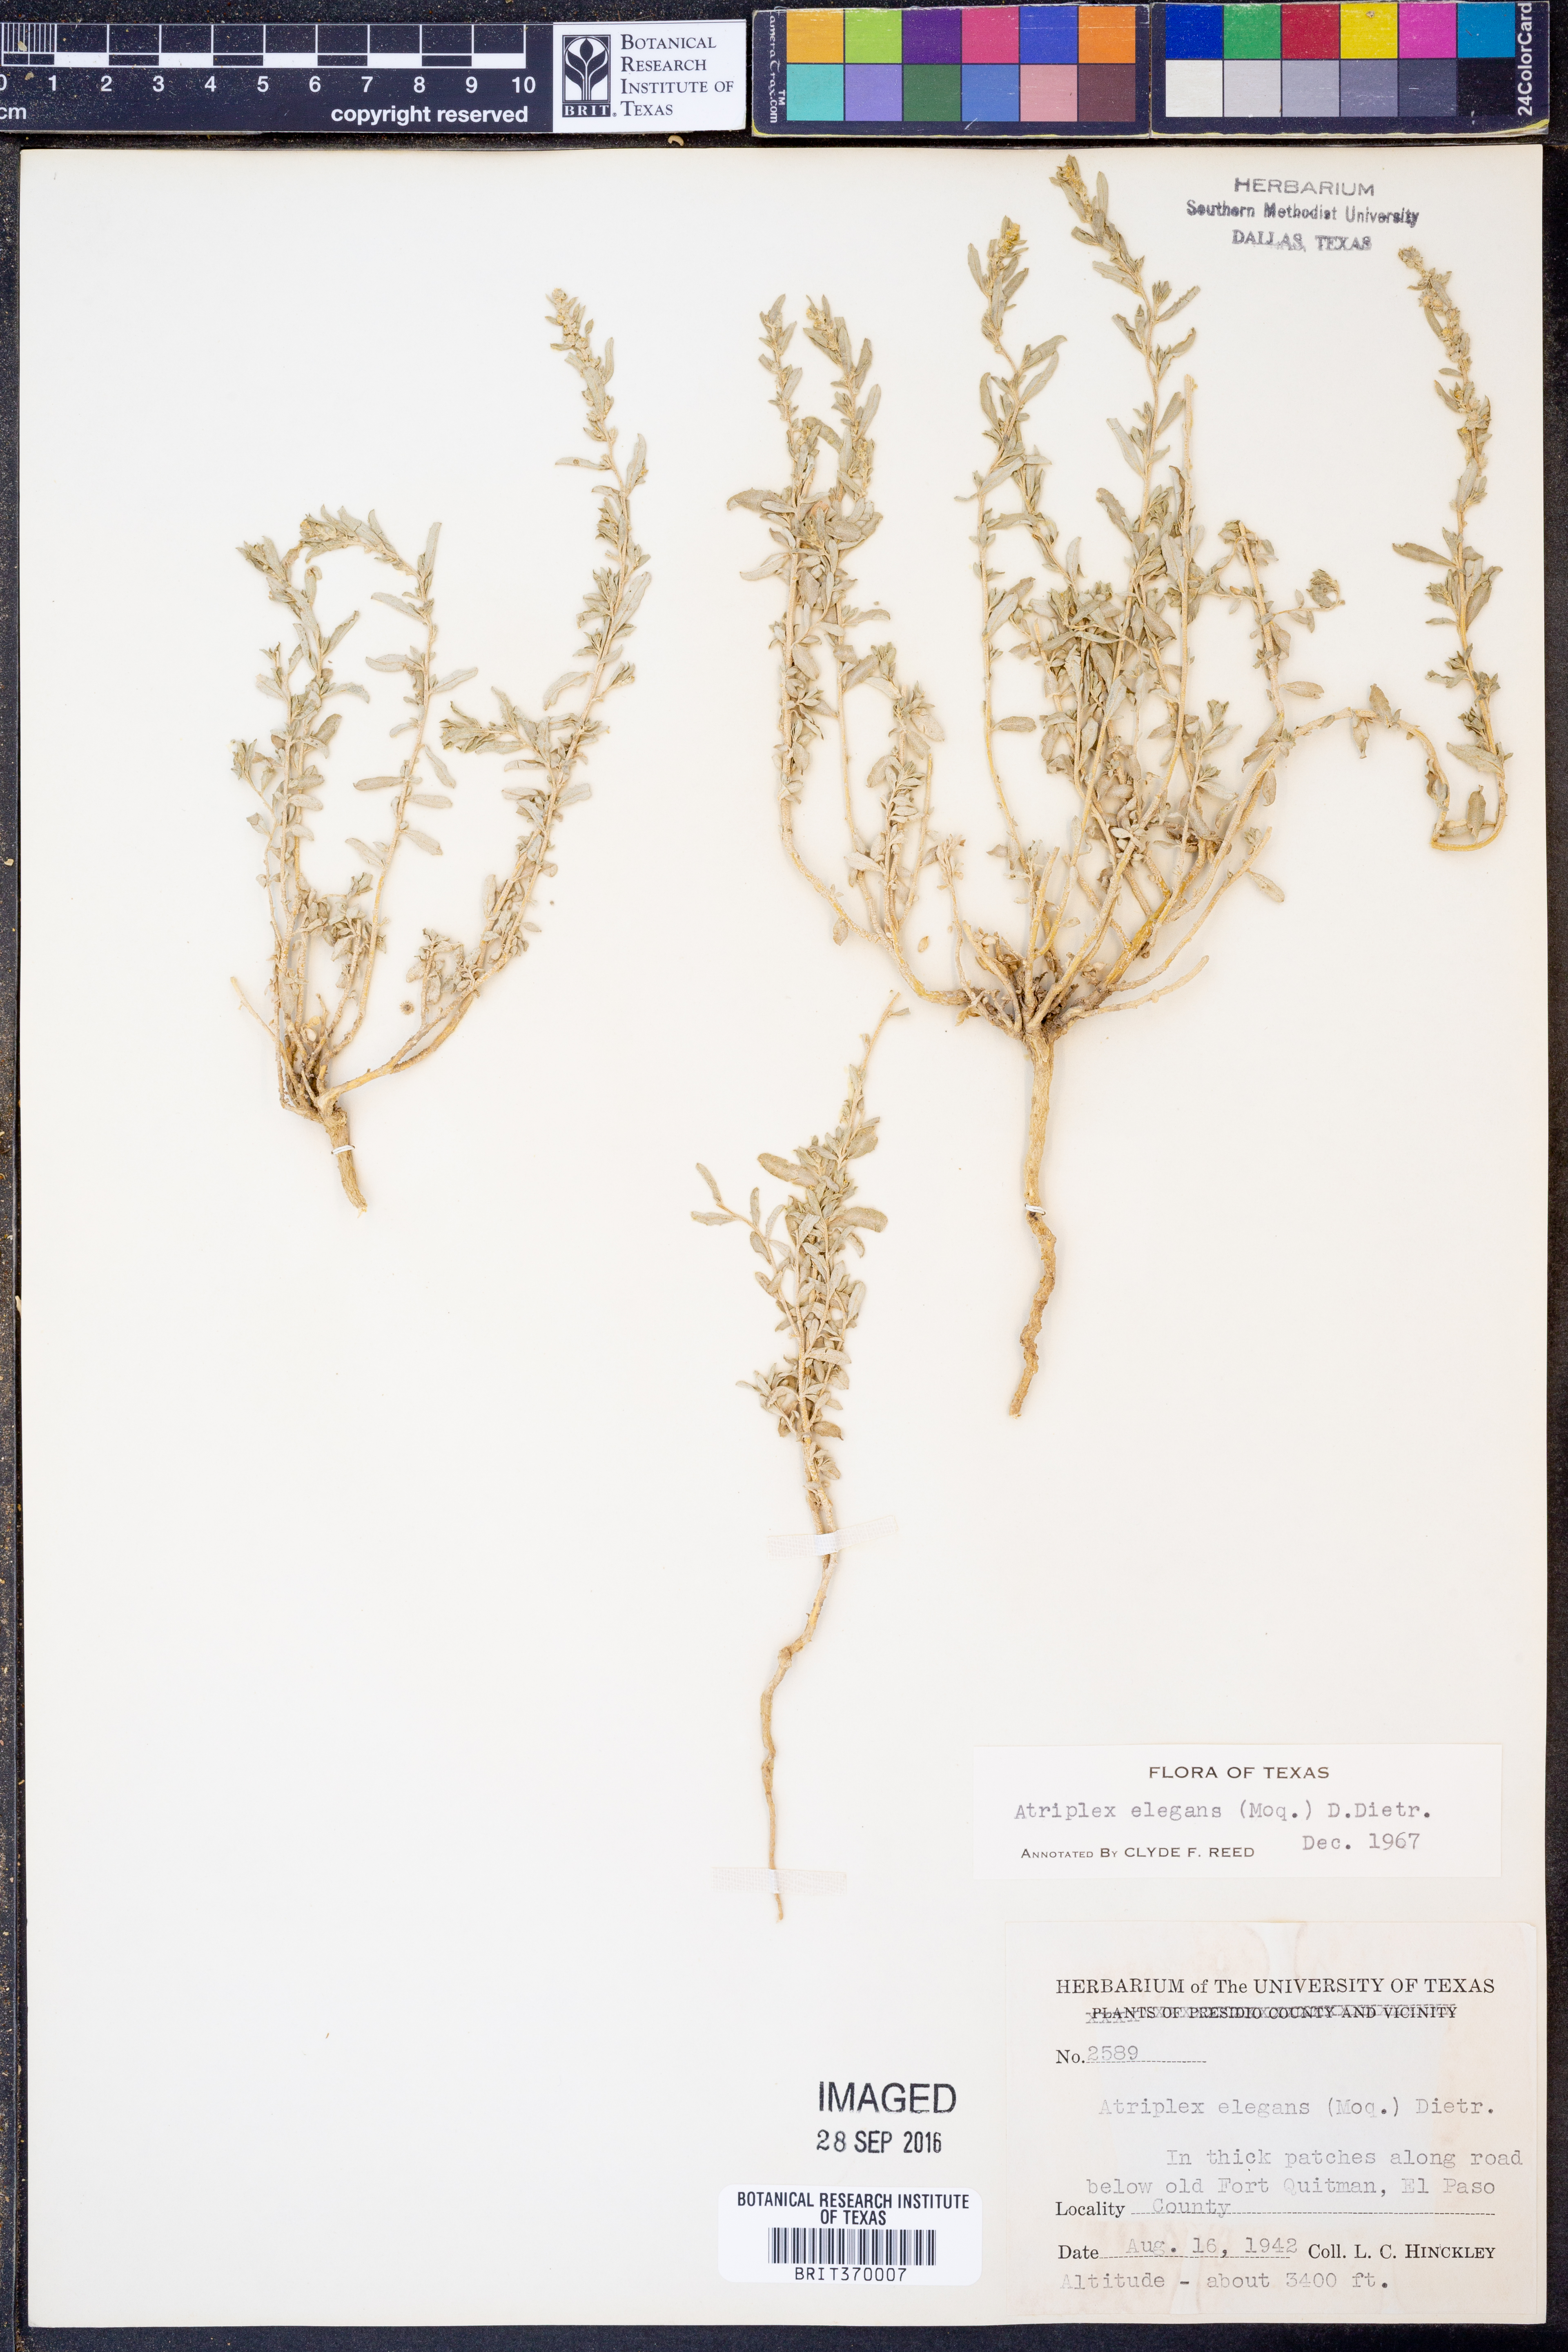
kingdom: Plantae
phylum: Tracheophyta
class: Magnoliopsida
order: Caryophyllales
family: Amaranthaceae
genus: Atriplex
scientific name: Atriplex elegans
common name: Wheelscale orach
